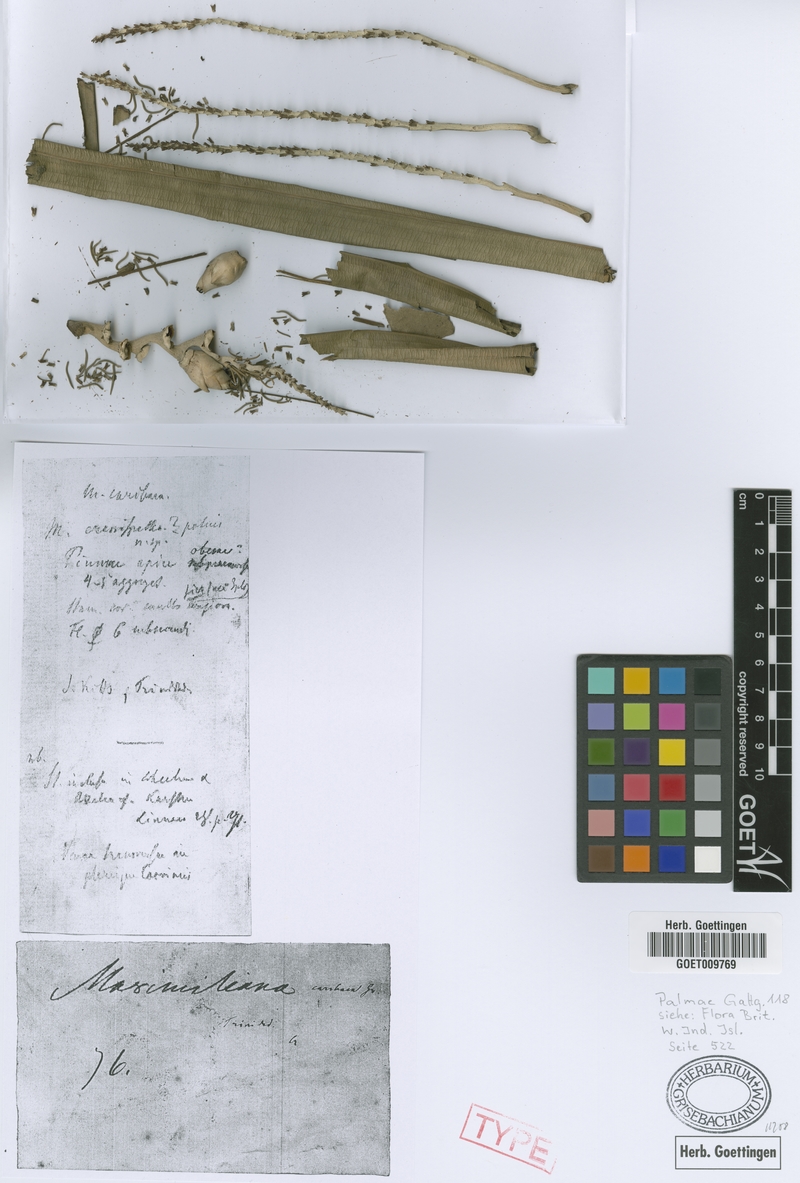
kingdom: Plantae
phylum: Tracheophyta
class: Liliopsida
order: Arecales
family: Arecaceae
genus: Attalea
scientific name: Attalea maripa
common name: Maripa palm
